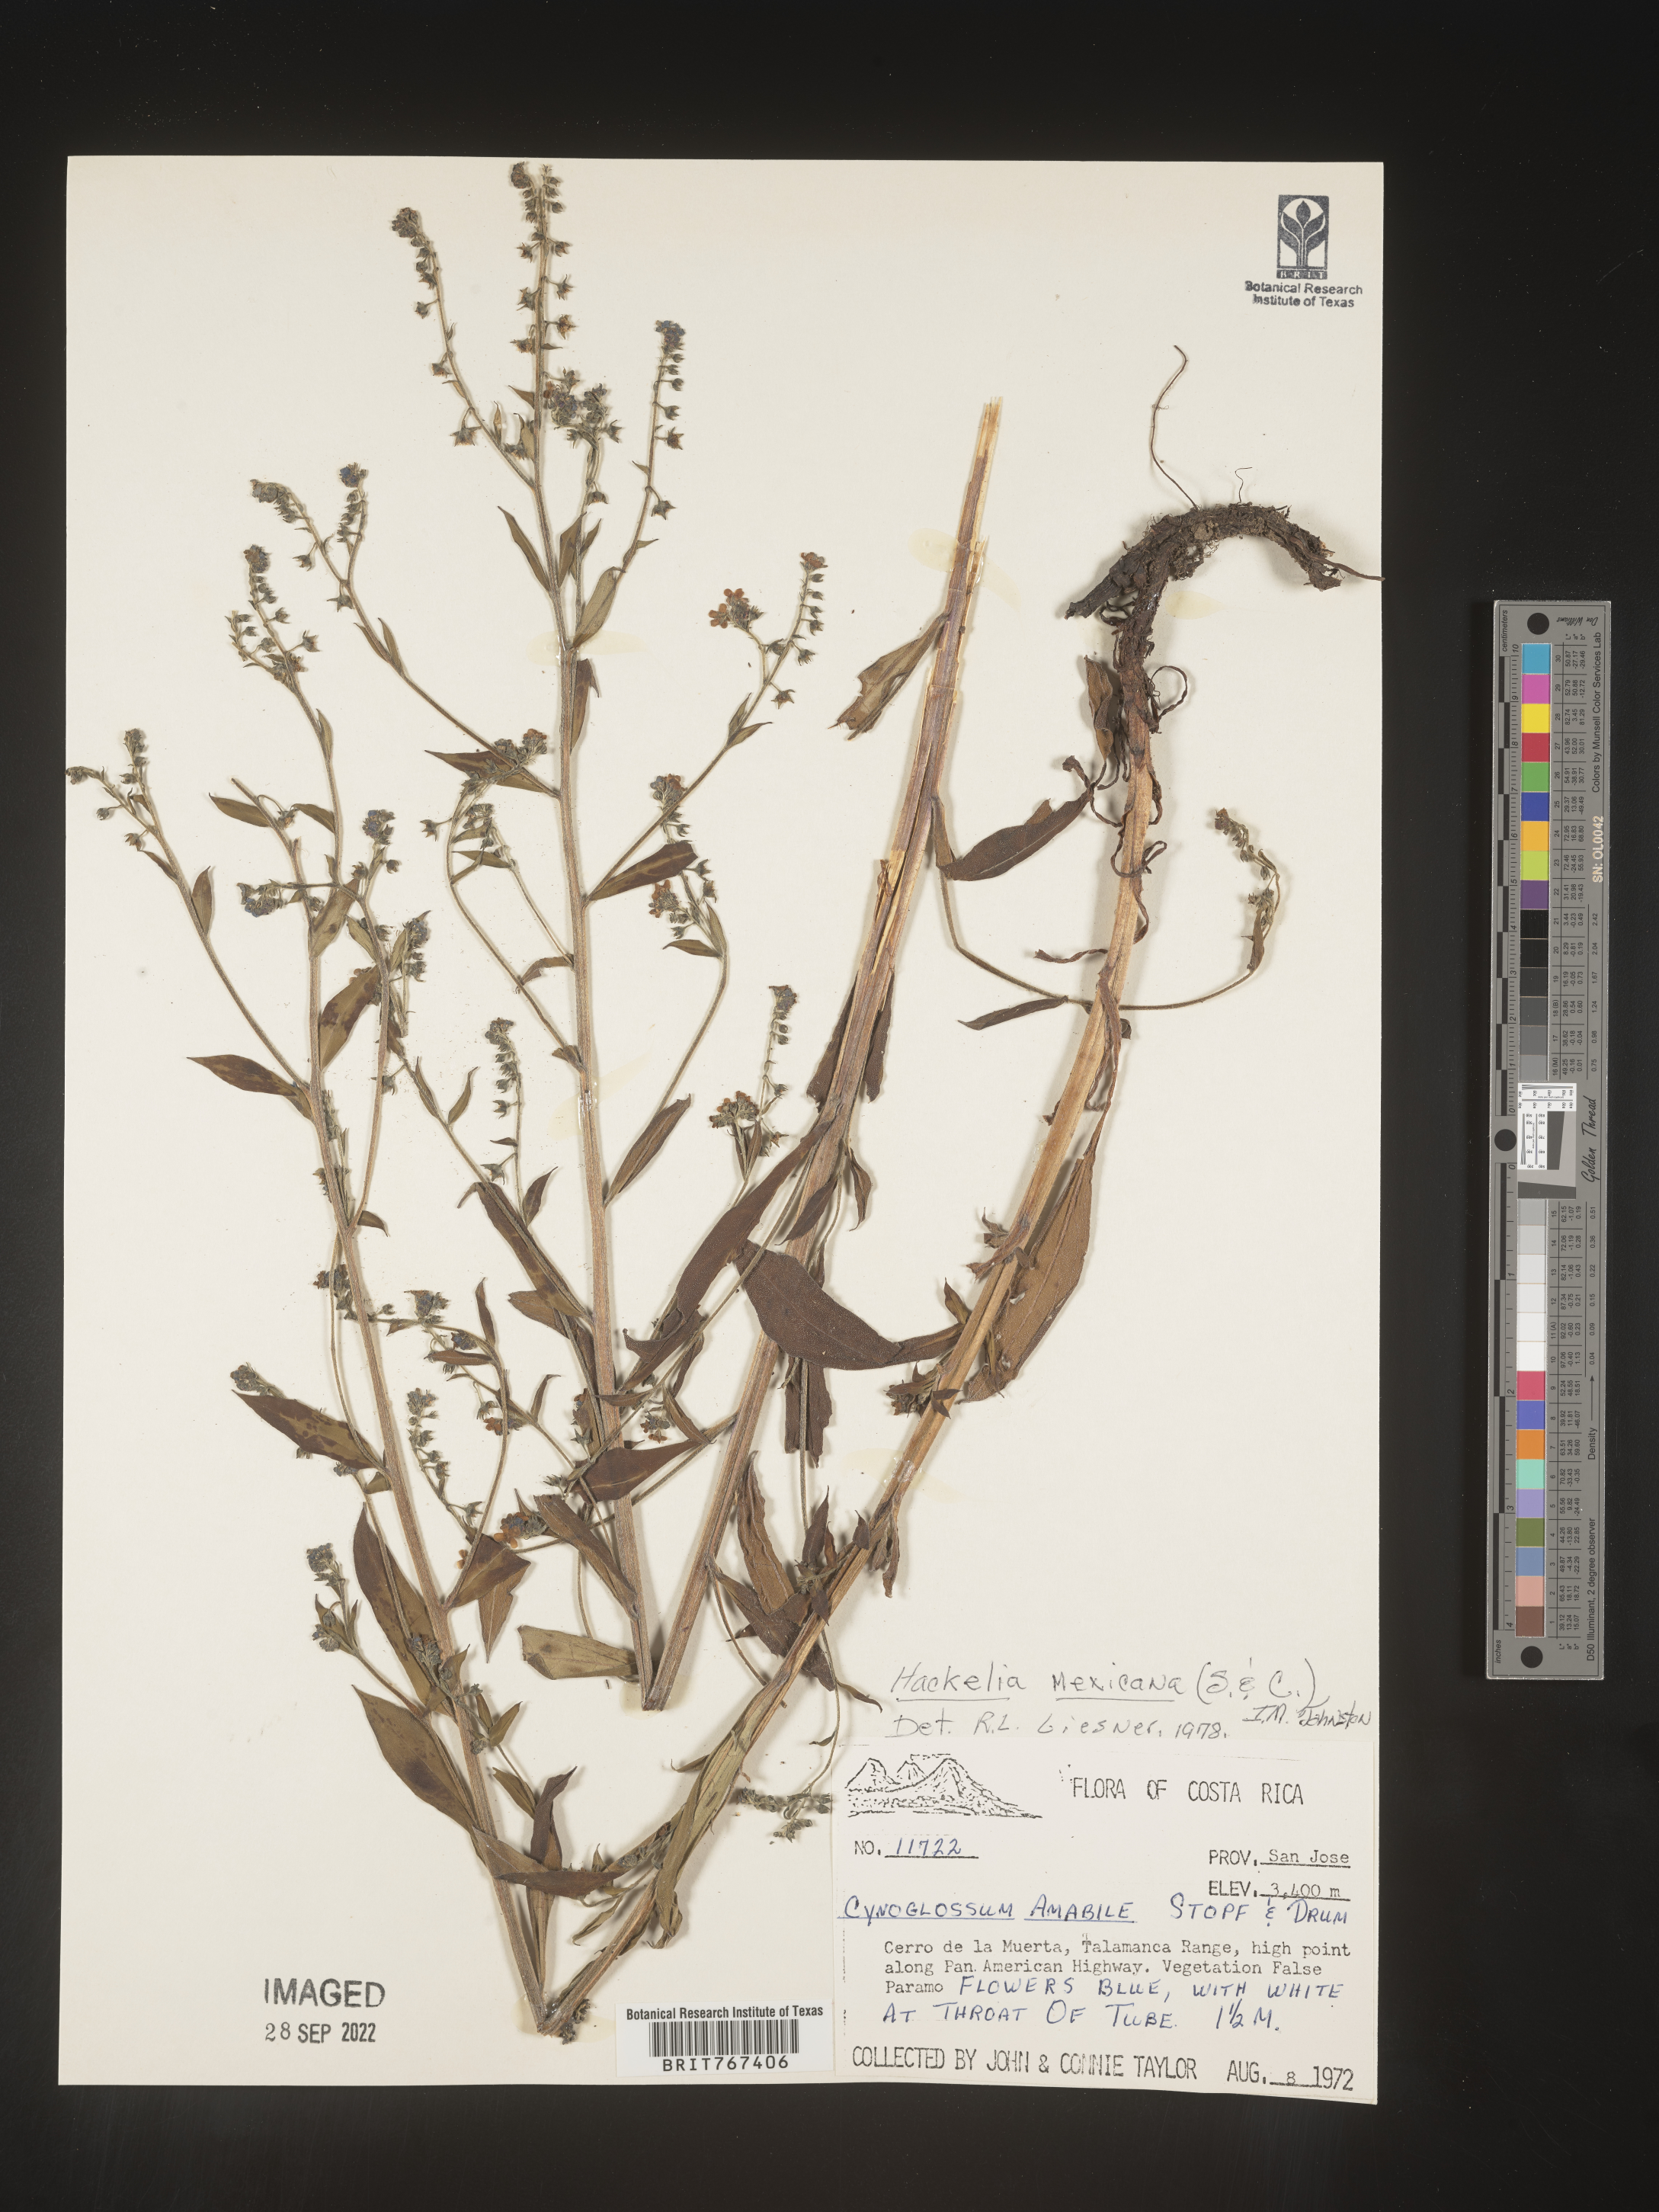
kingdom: Plantae
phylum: Tracheophyta
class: Magnoliopsida
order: Boraginales
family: Boraginaceae
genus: Hackelia
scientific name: Hackelia
